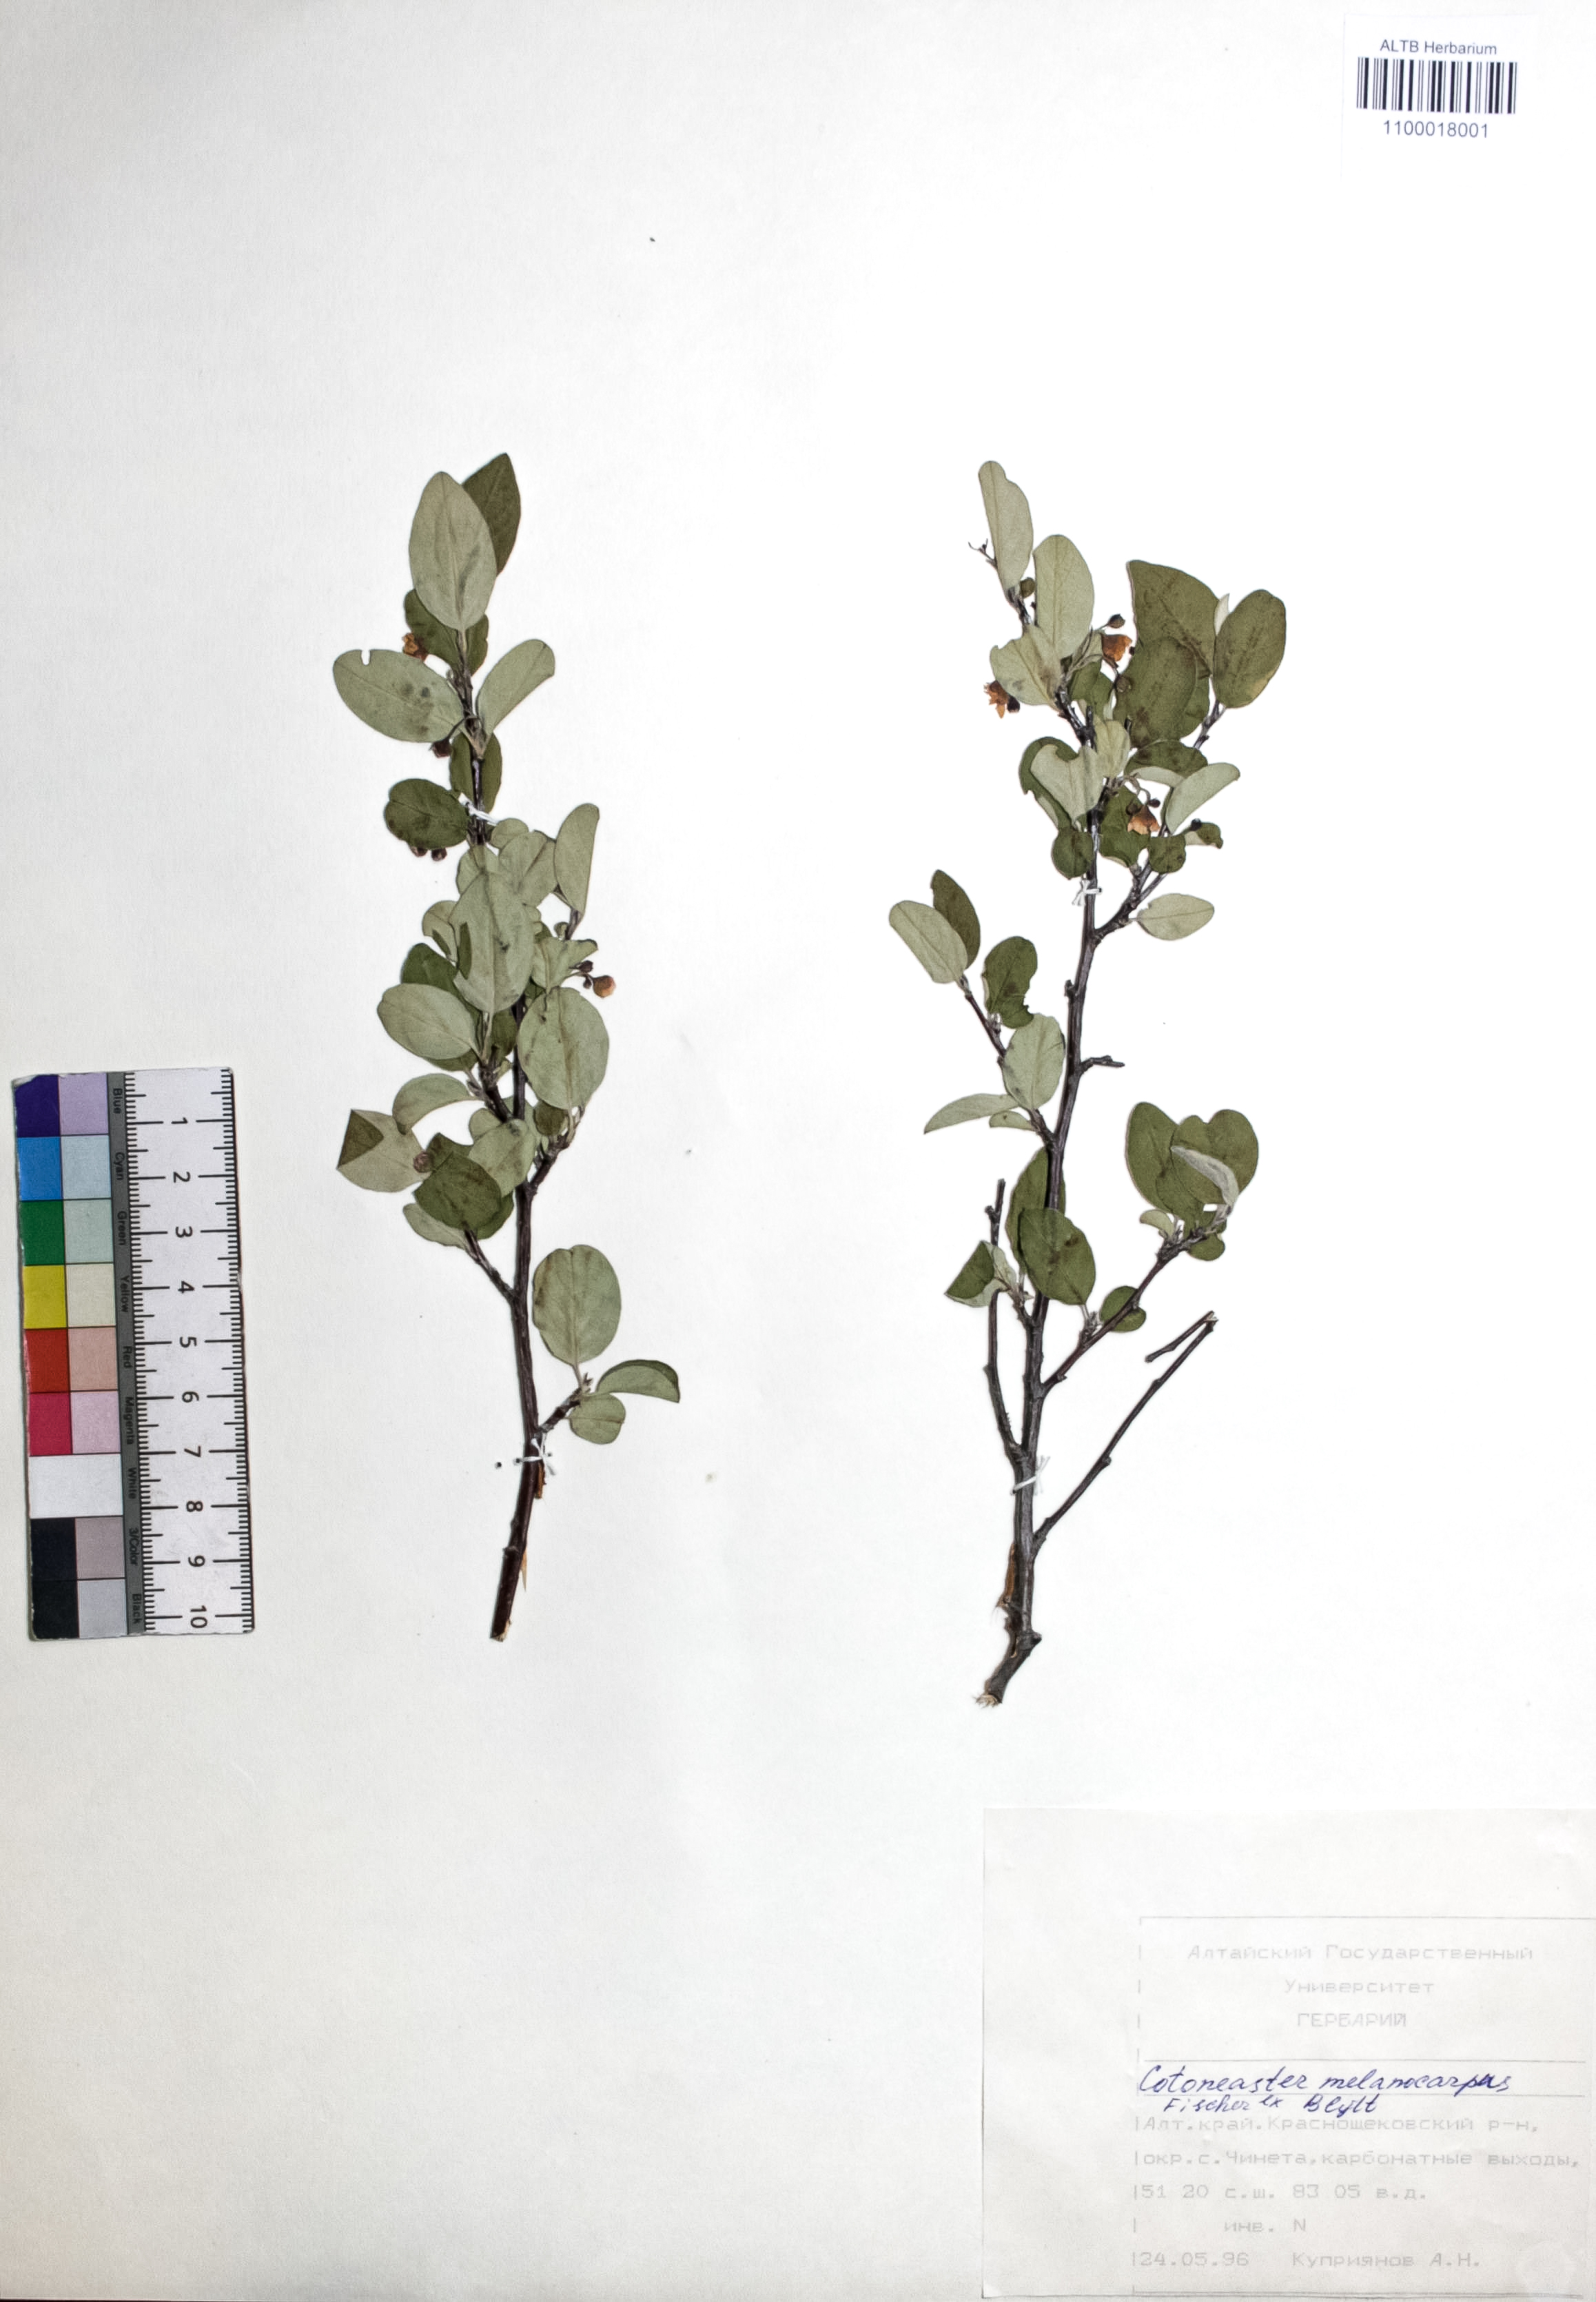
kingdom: Plantae
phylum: Tracheophyta
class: Magnoliopsida
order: Rosales
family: Rosaceae
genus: Cotoneaster
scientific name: Cotoneaster niger
